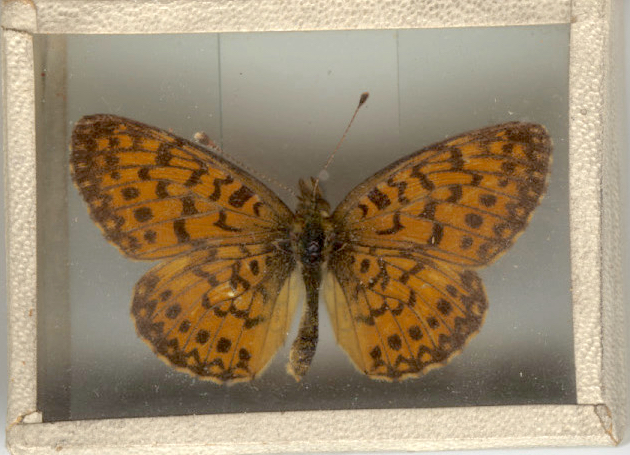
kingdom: Animalia
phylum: Arthropoda
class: Insecta
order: Lepidoptera
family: Nymphalidae
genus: Boloria
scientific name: Boloria selene
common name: Silver-bordered Fritillary
